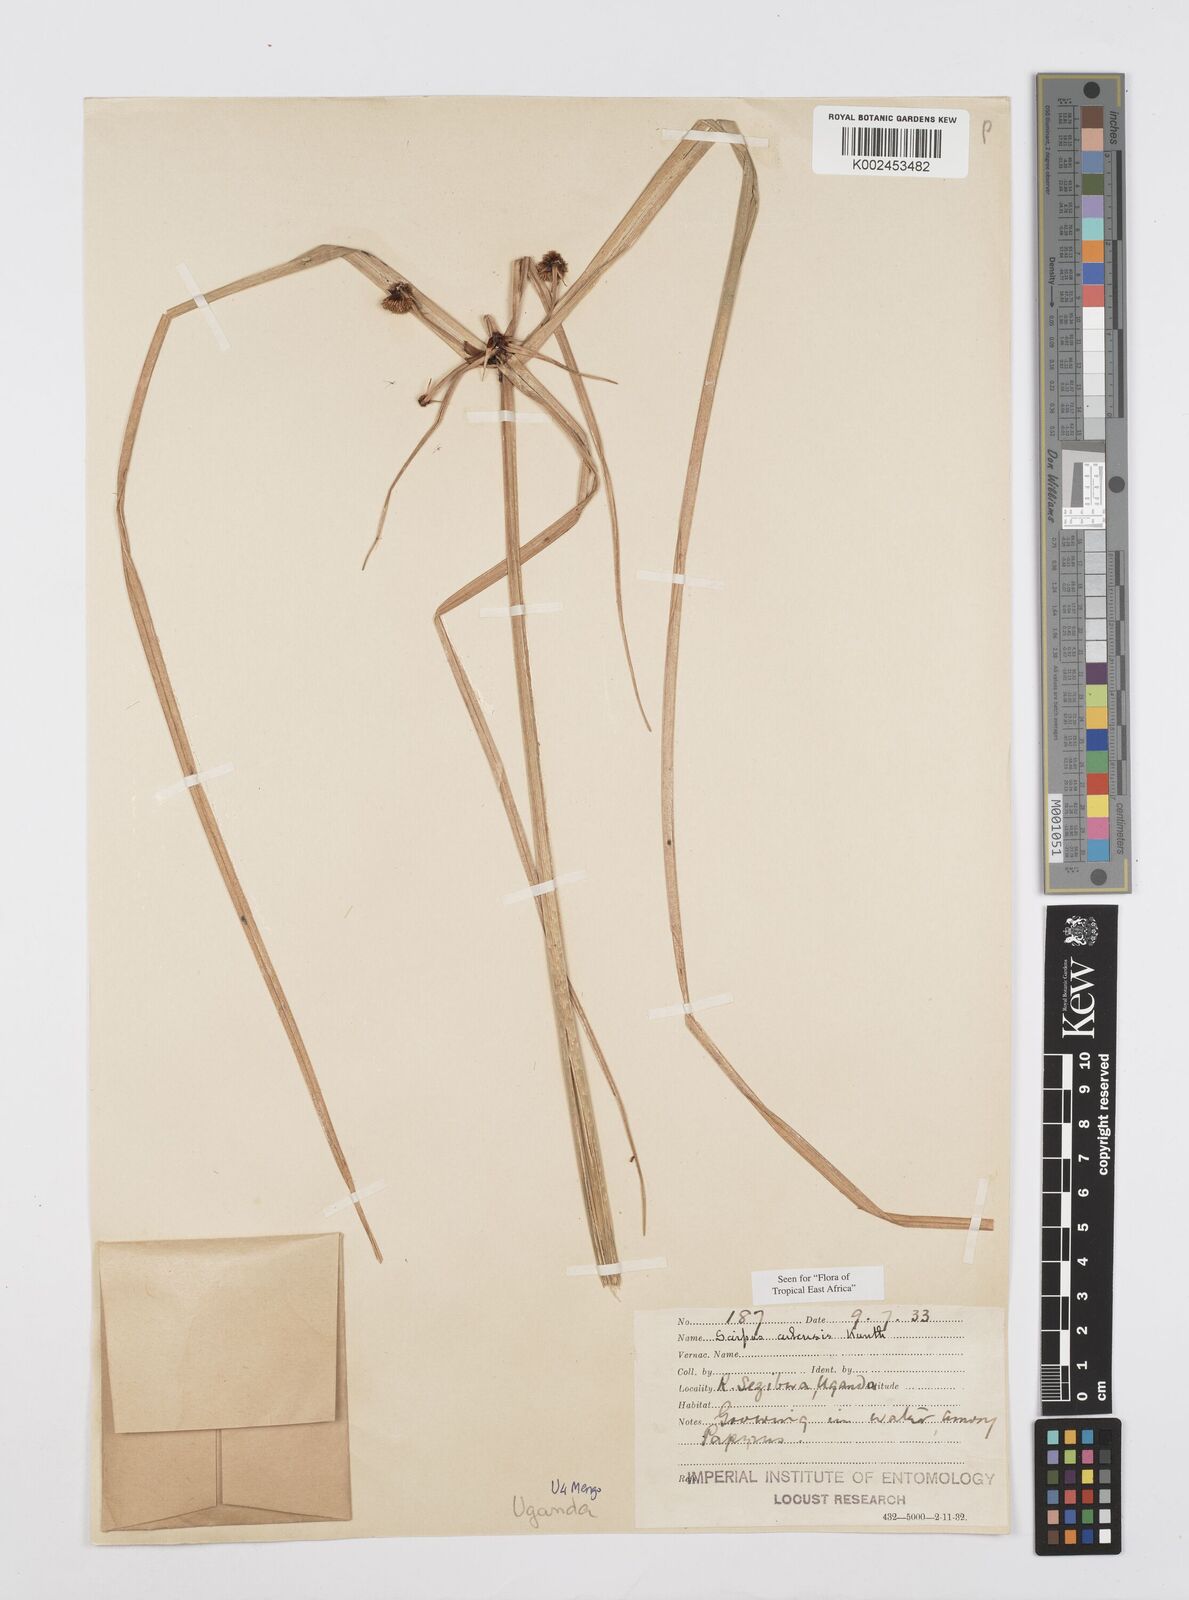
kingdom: Plantae
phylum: Tracheophyta
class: Liliopsida
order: Poales
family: Cyperaceae
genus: Cyperus
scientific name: Cyperus elegans
